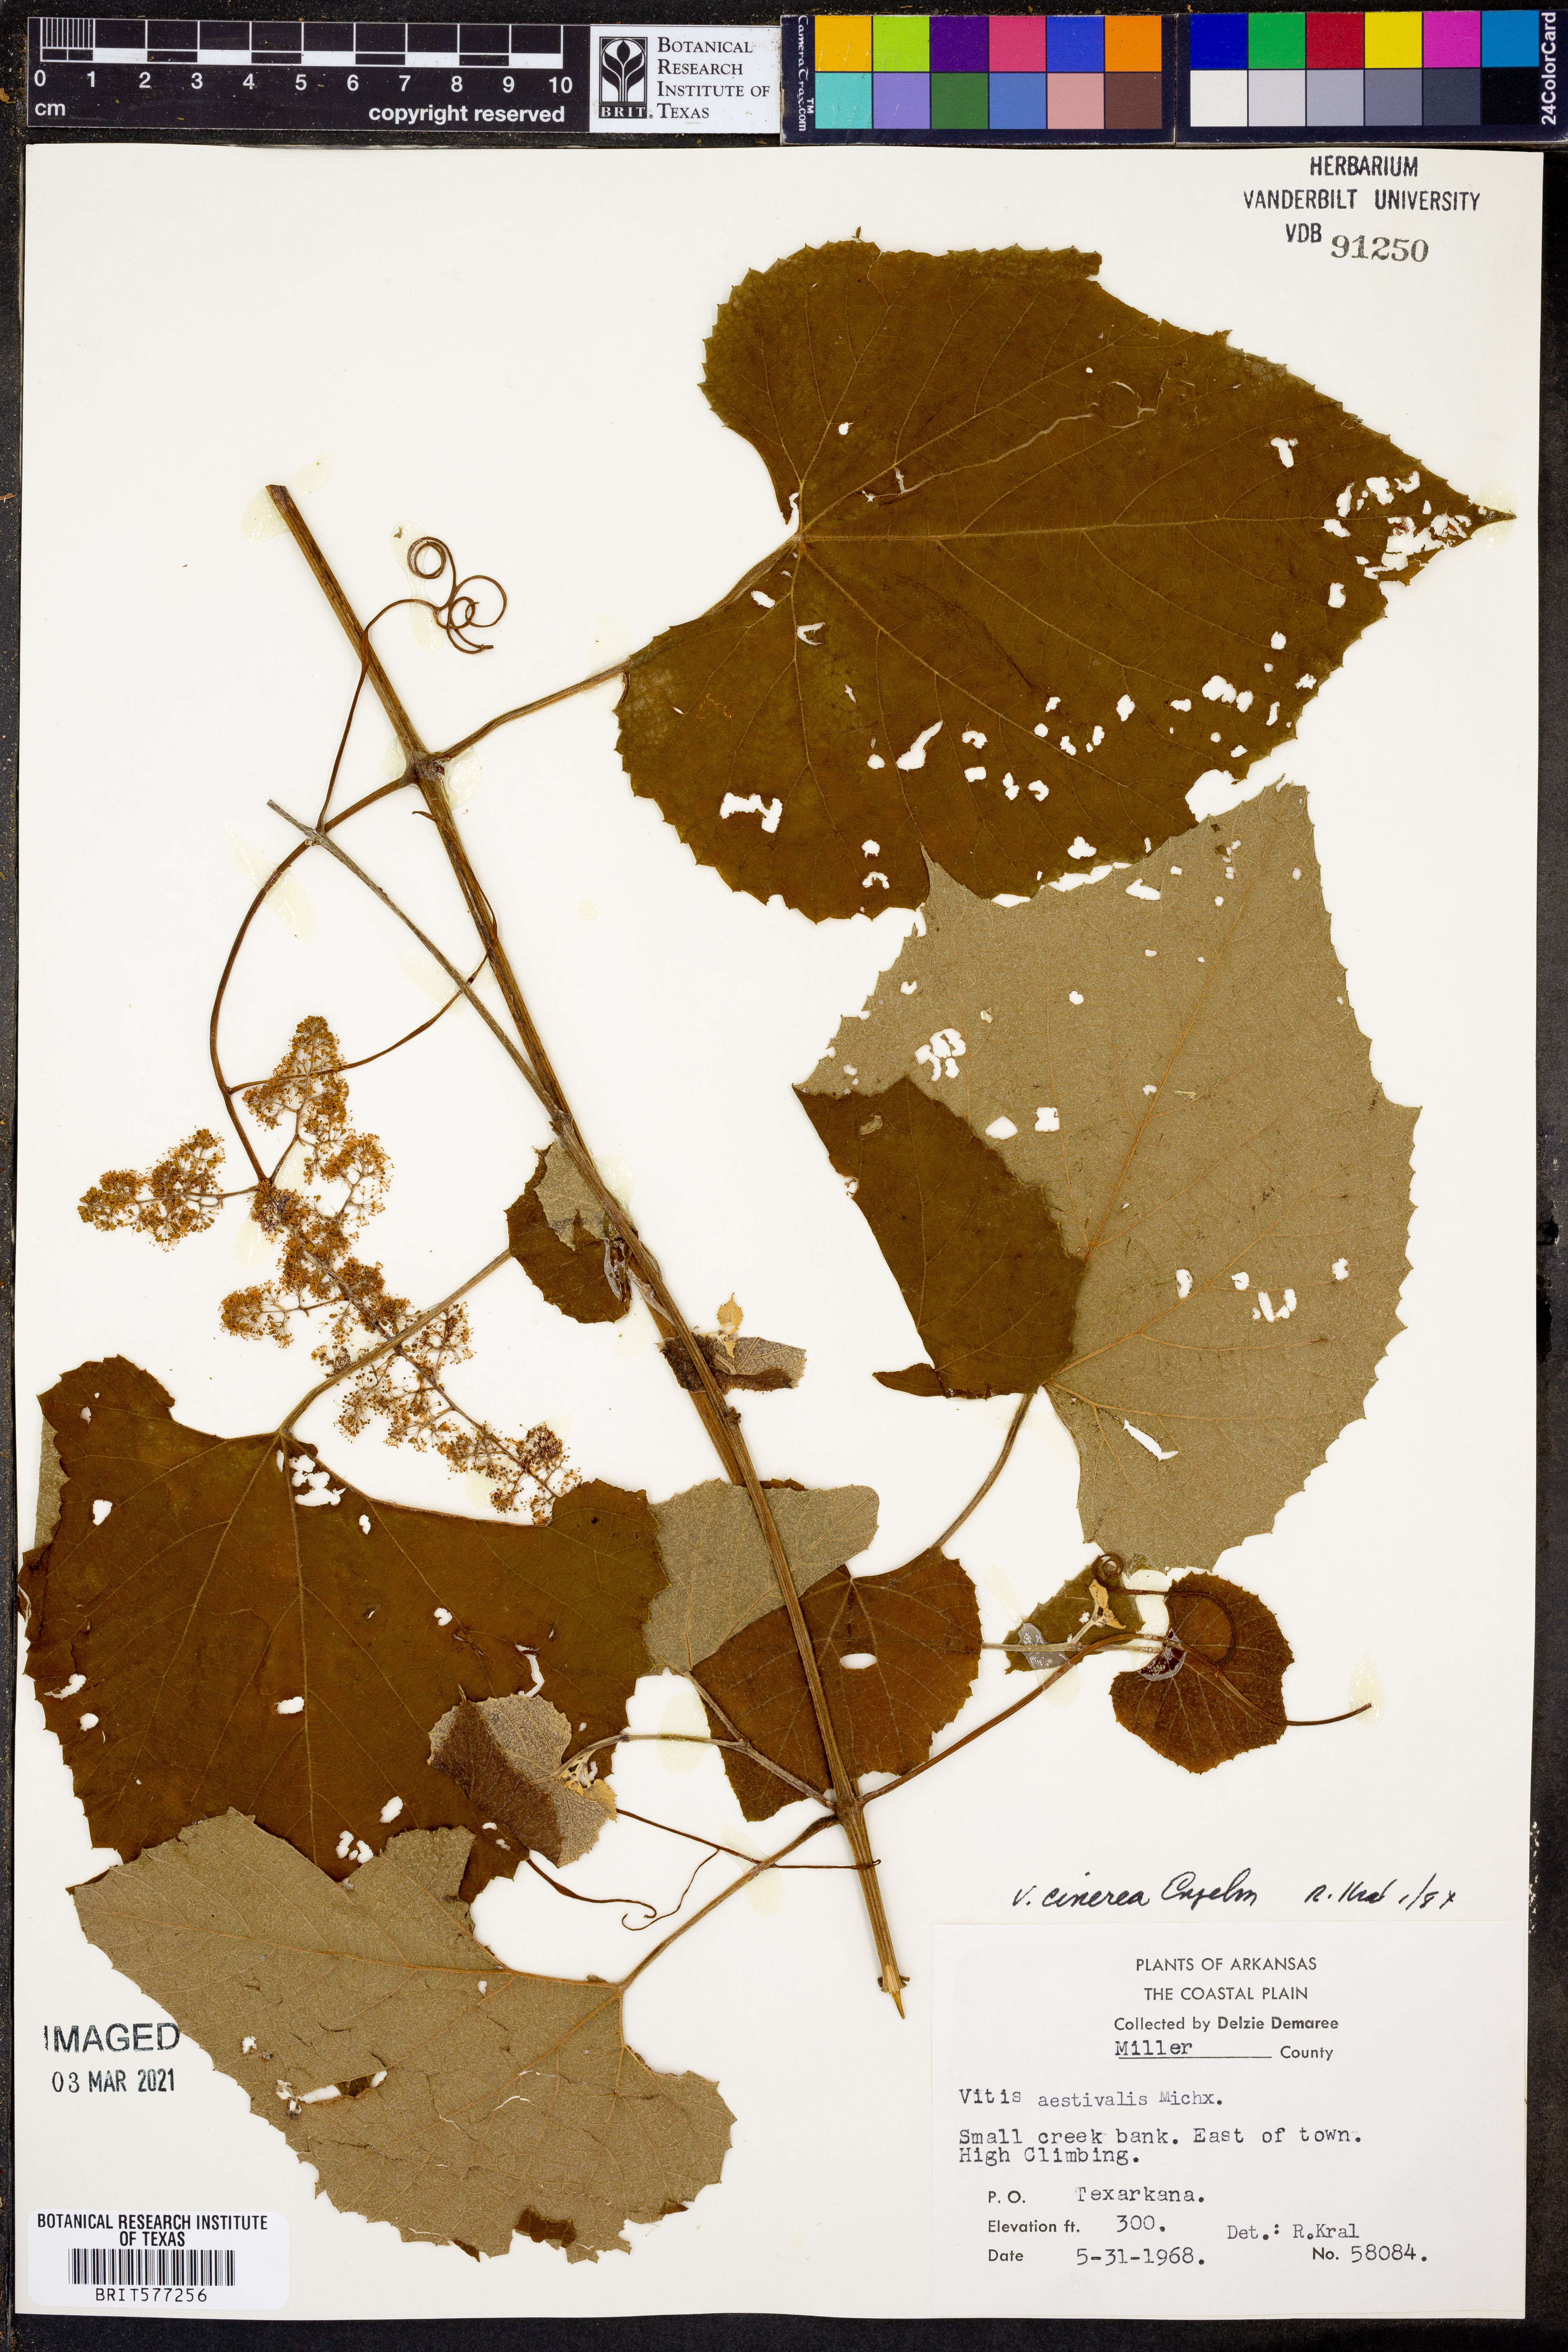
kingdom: Plantae
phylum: Tracheophyta
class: Magnoliopsida
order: Vitales
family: Vitaceae
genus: Vitis
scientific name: Vitis cinerea
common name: Ashy grape
